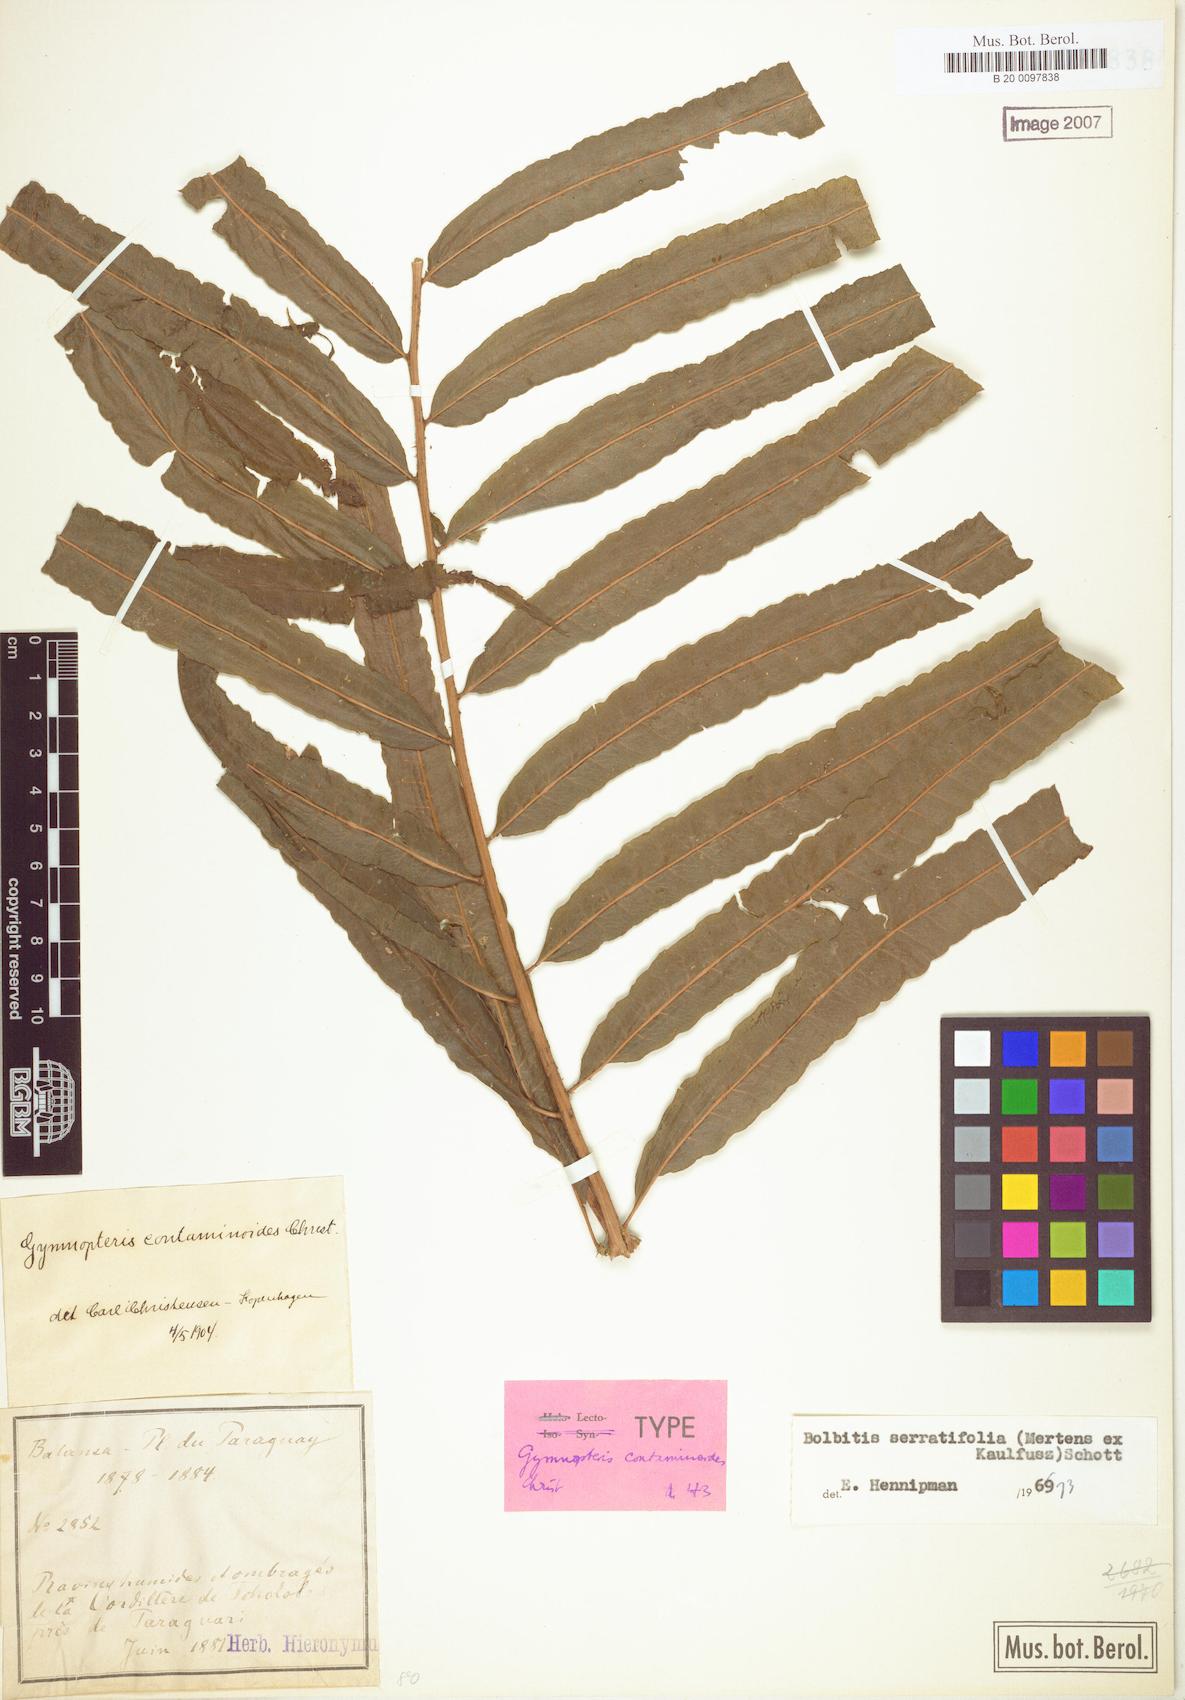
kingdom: Plantae
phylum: Tracheophyta
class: Polypodiopsida
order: Polypodiales
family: Dryopteridaceae
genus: Bolbitis
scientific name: Bolbitis serratifolia
